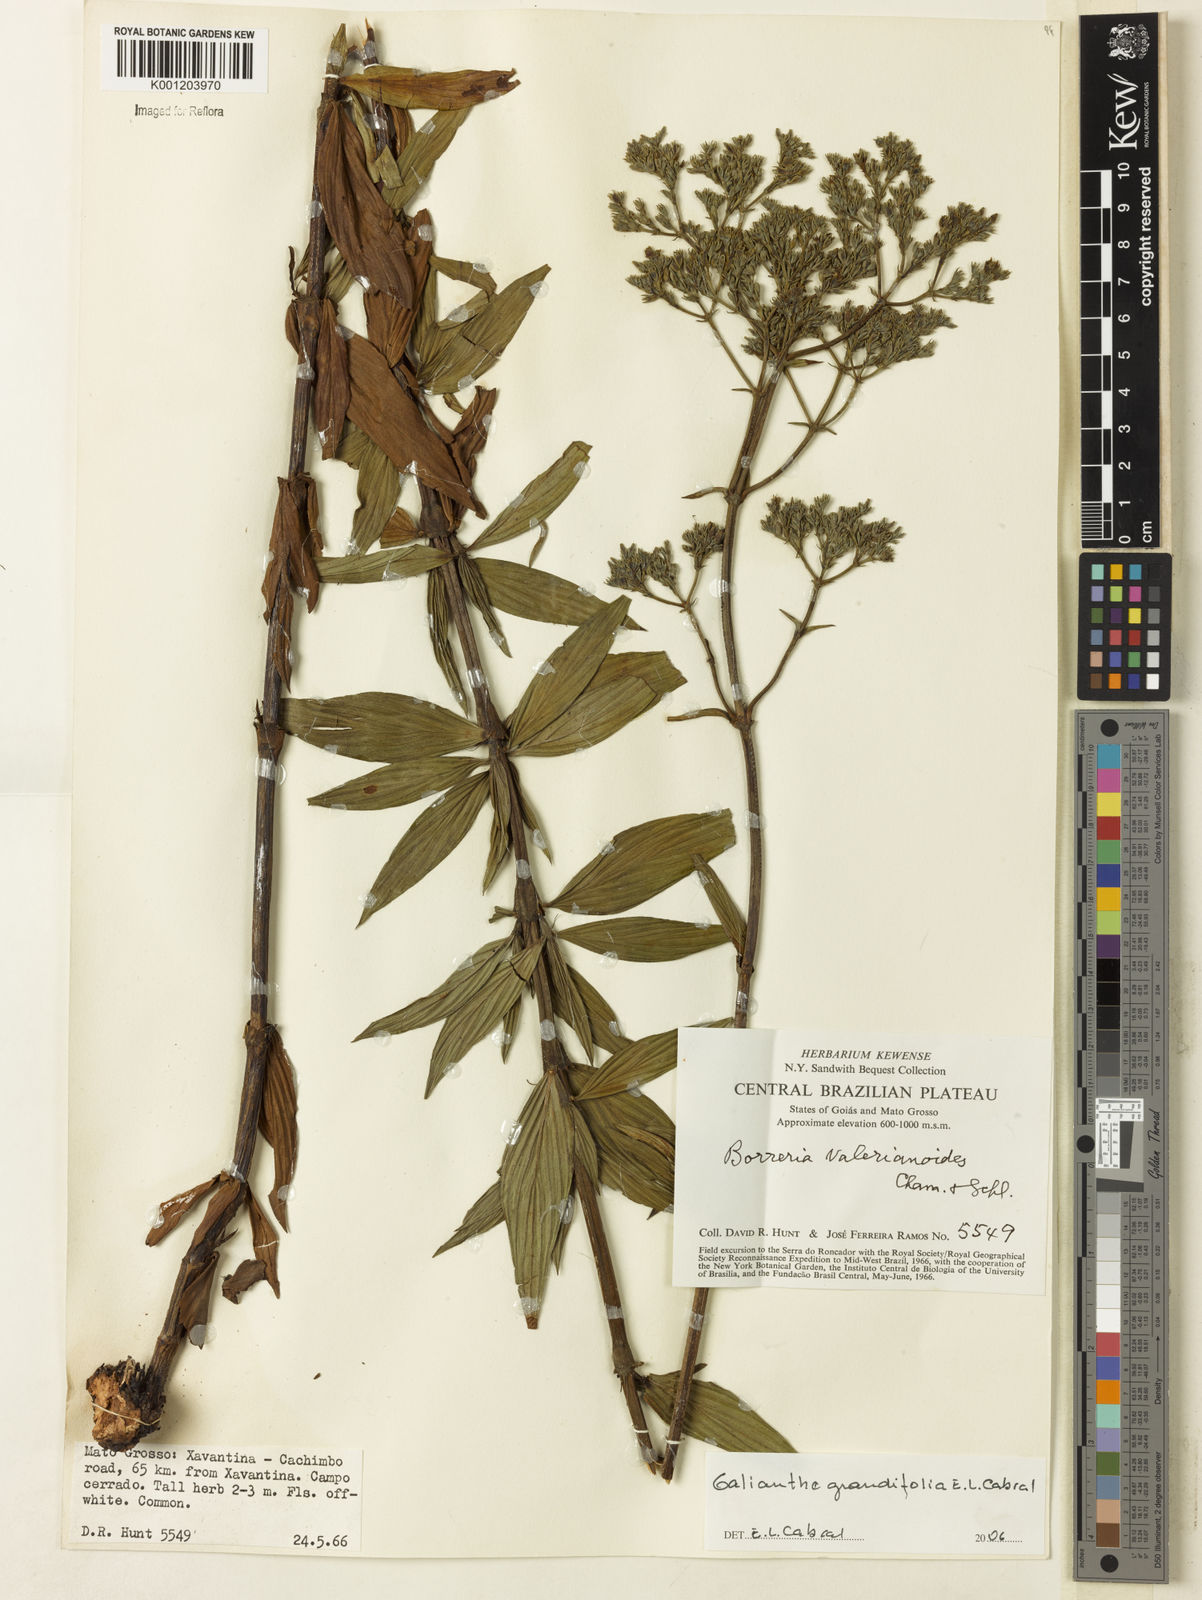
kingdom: Plantae
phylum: Tracheophyta
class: Magnoliopsida
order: Gentianales
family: Rubiaceae
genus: Galianthe
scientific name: Galianthe grandifolia
